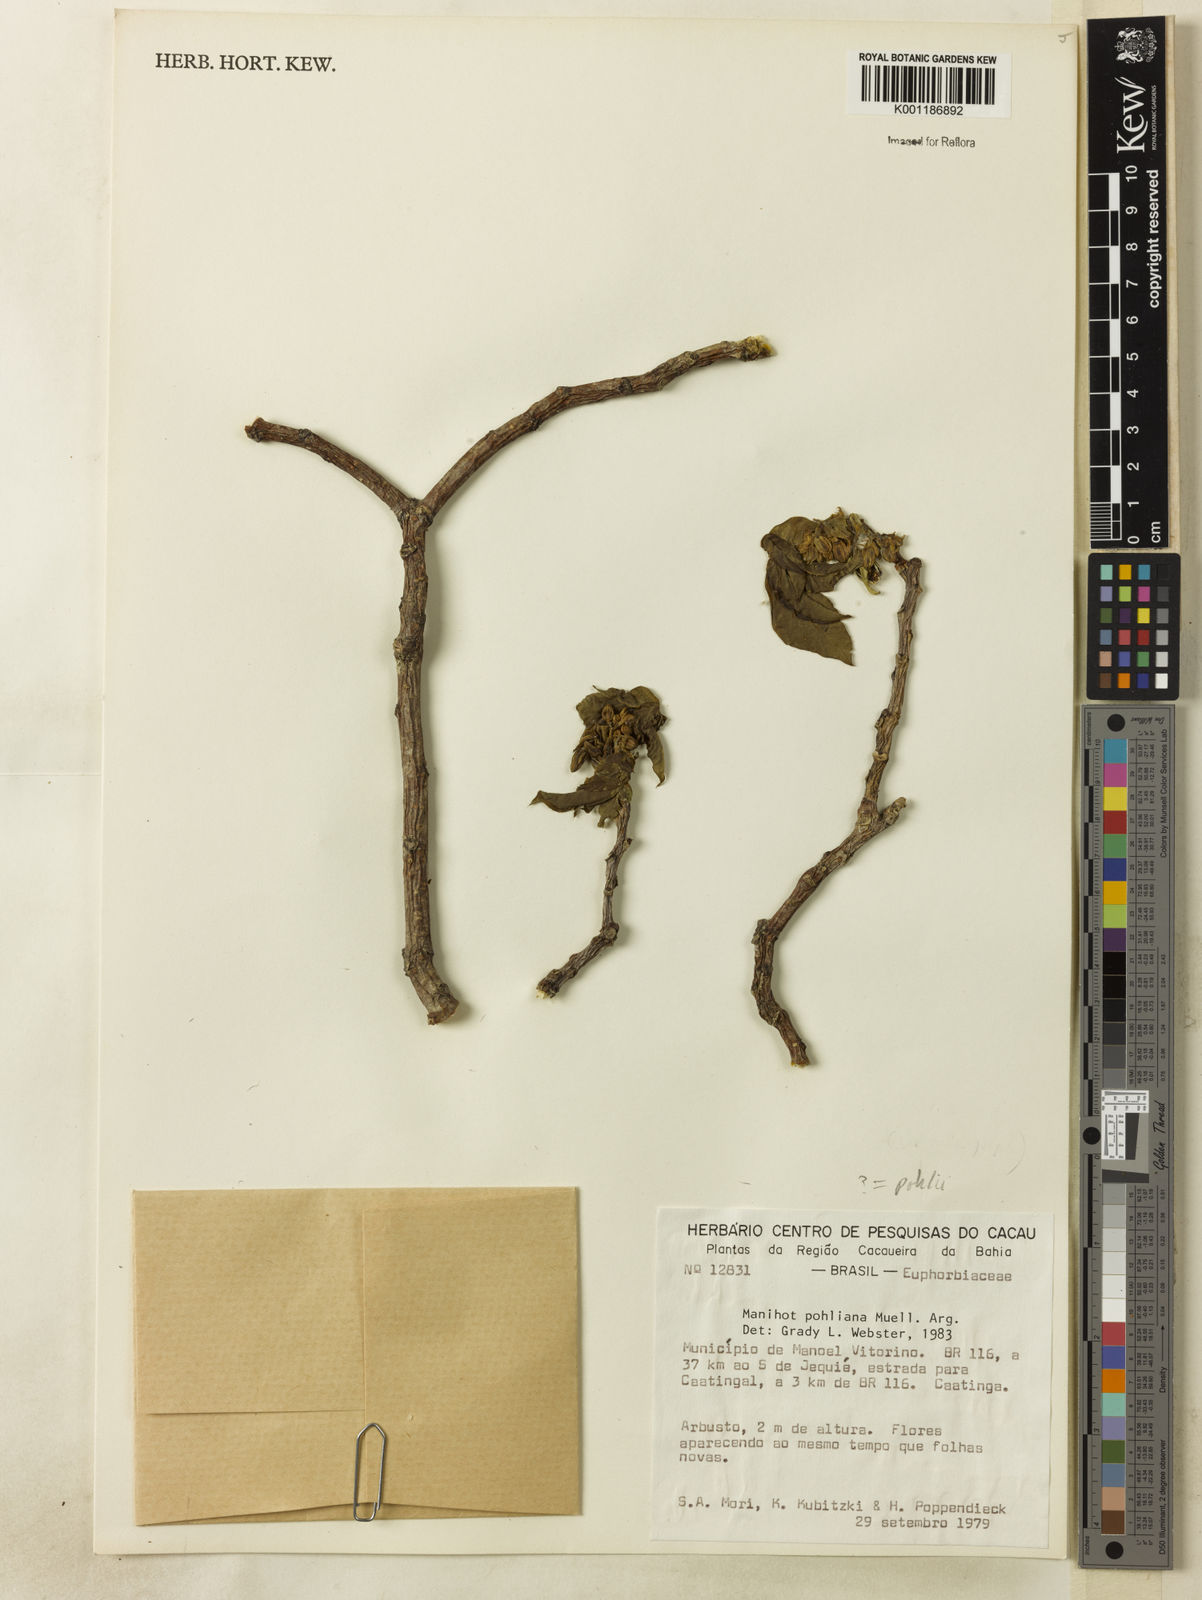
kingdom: Plantae
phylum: Tracheophyta
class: Magnoliopsida
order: Malpighiales
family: Euphorbiaceae
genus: Manihot
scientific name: Manihot
